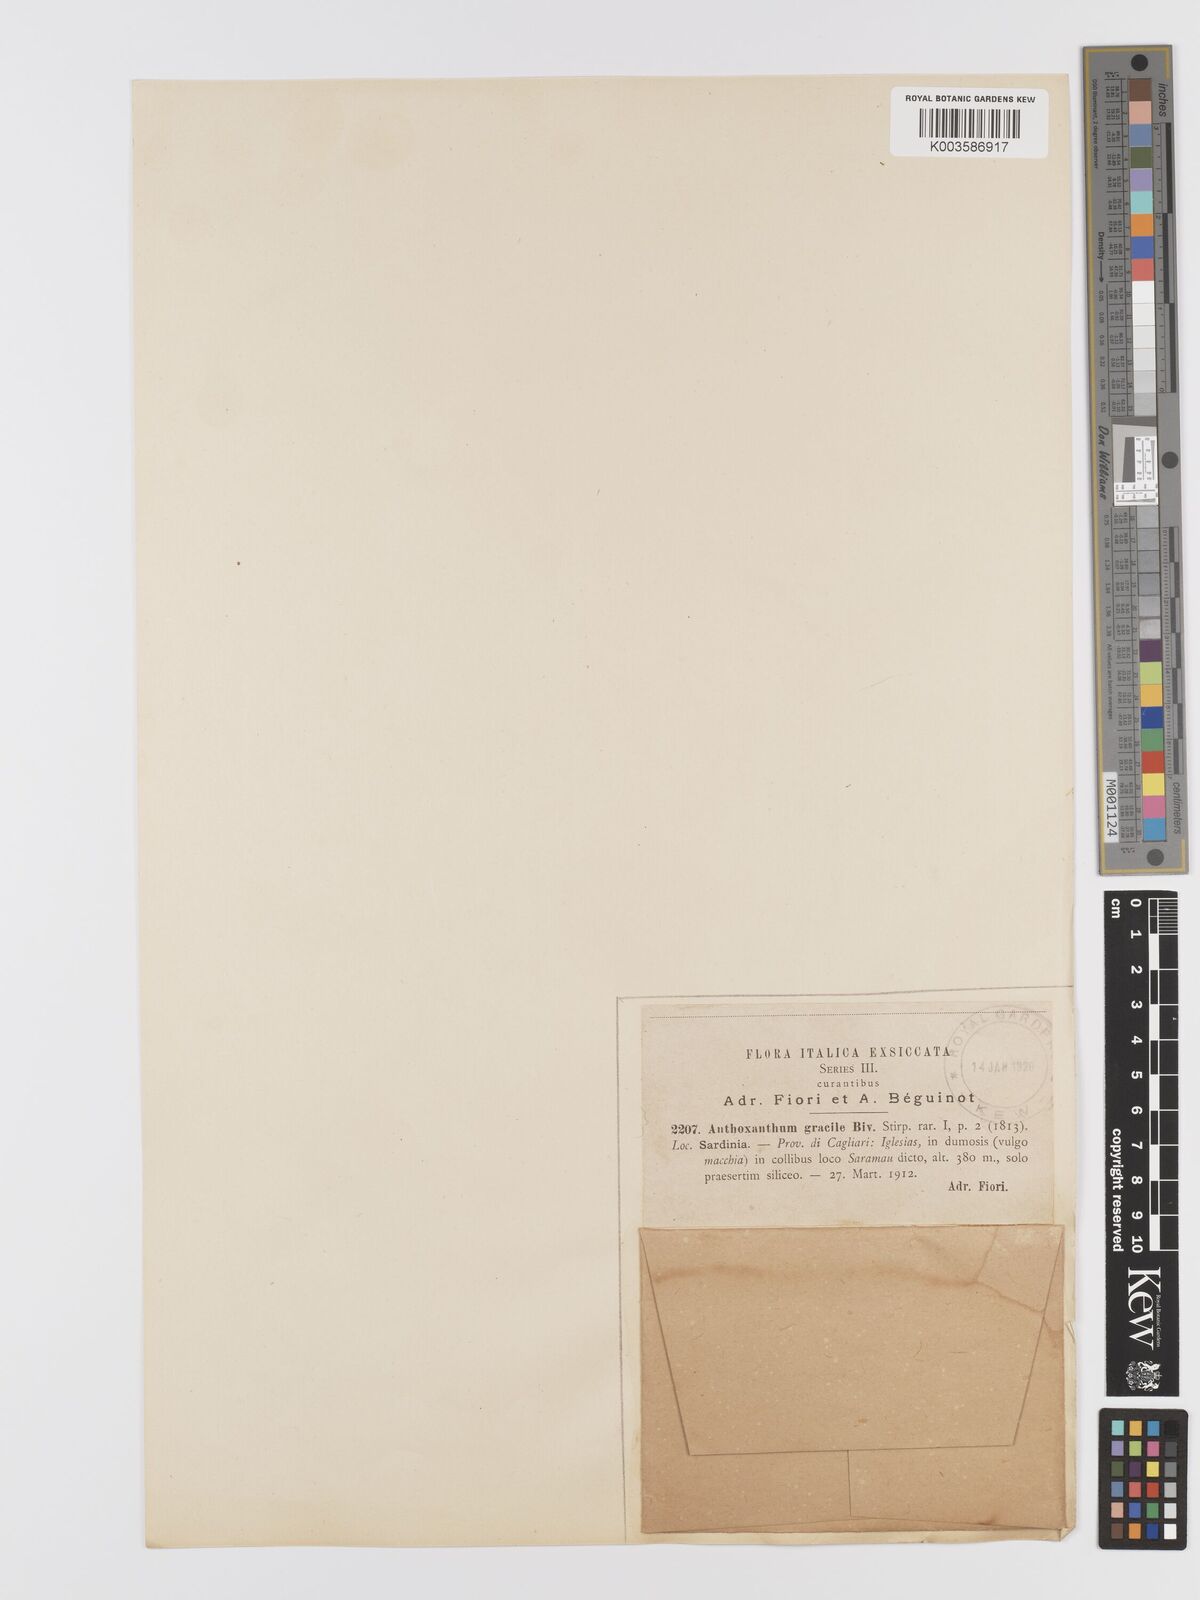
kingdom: Plantae
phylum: Tracheophyta
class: Liliopsida
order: Poales
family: Poaceae
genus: Anthoxanthum
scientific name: Anthoxanthum gracile
